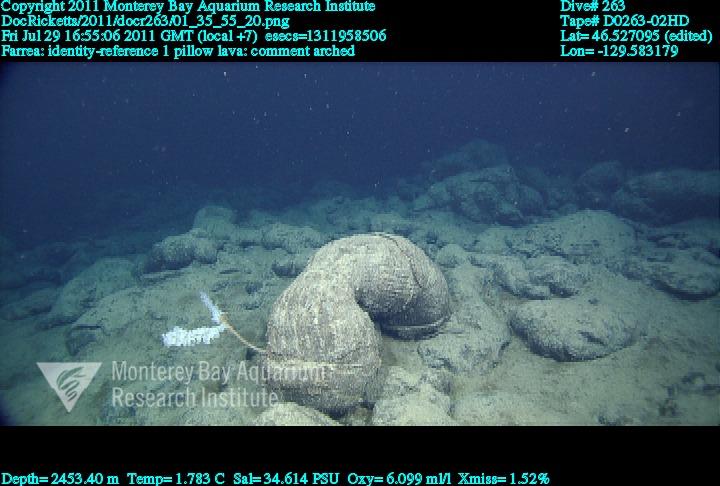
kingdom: Animalia
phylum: Porifera
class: Hexactinellida
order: Sceptrulophora
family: Farreidae
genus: Farrea
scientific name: Farrea
